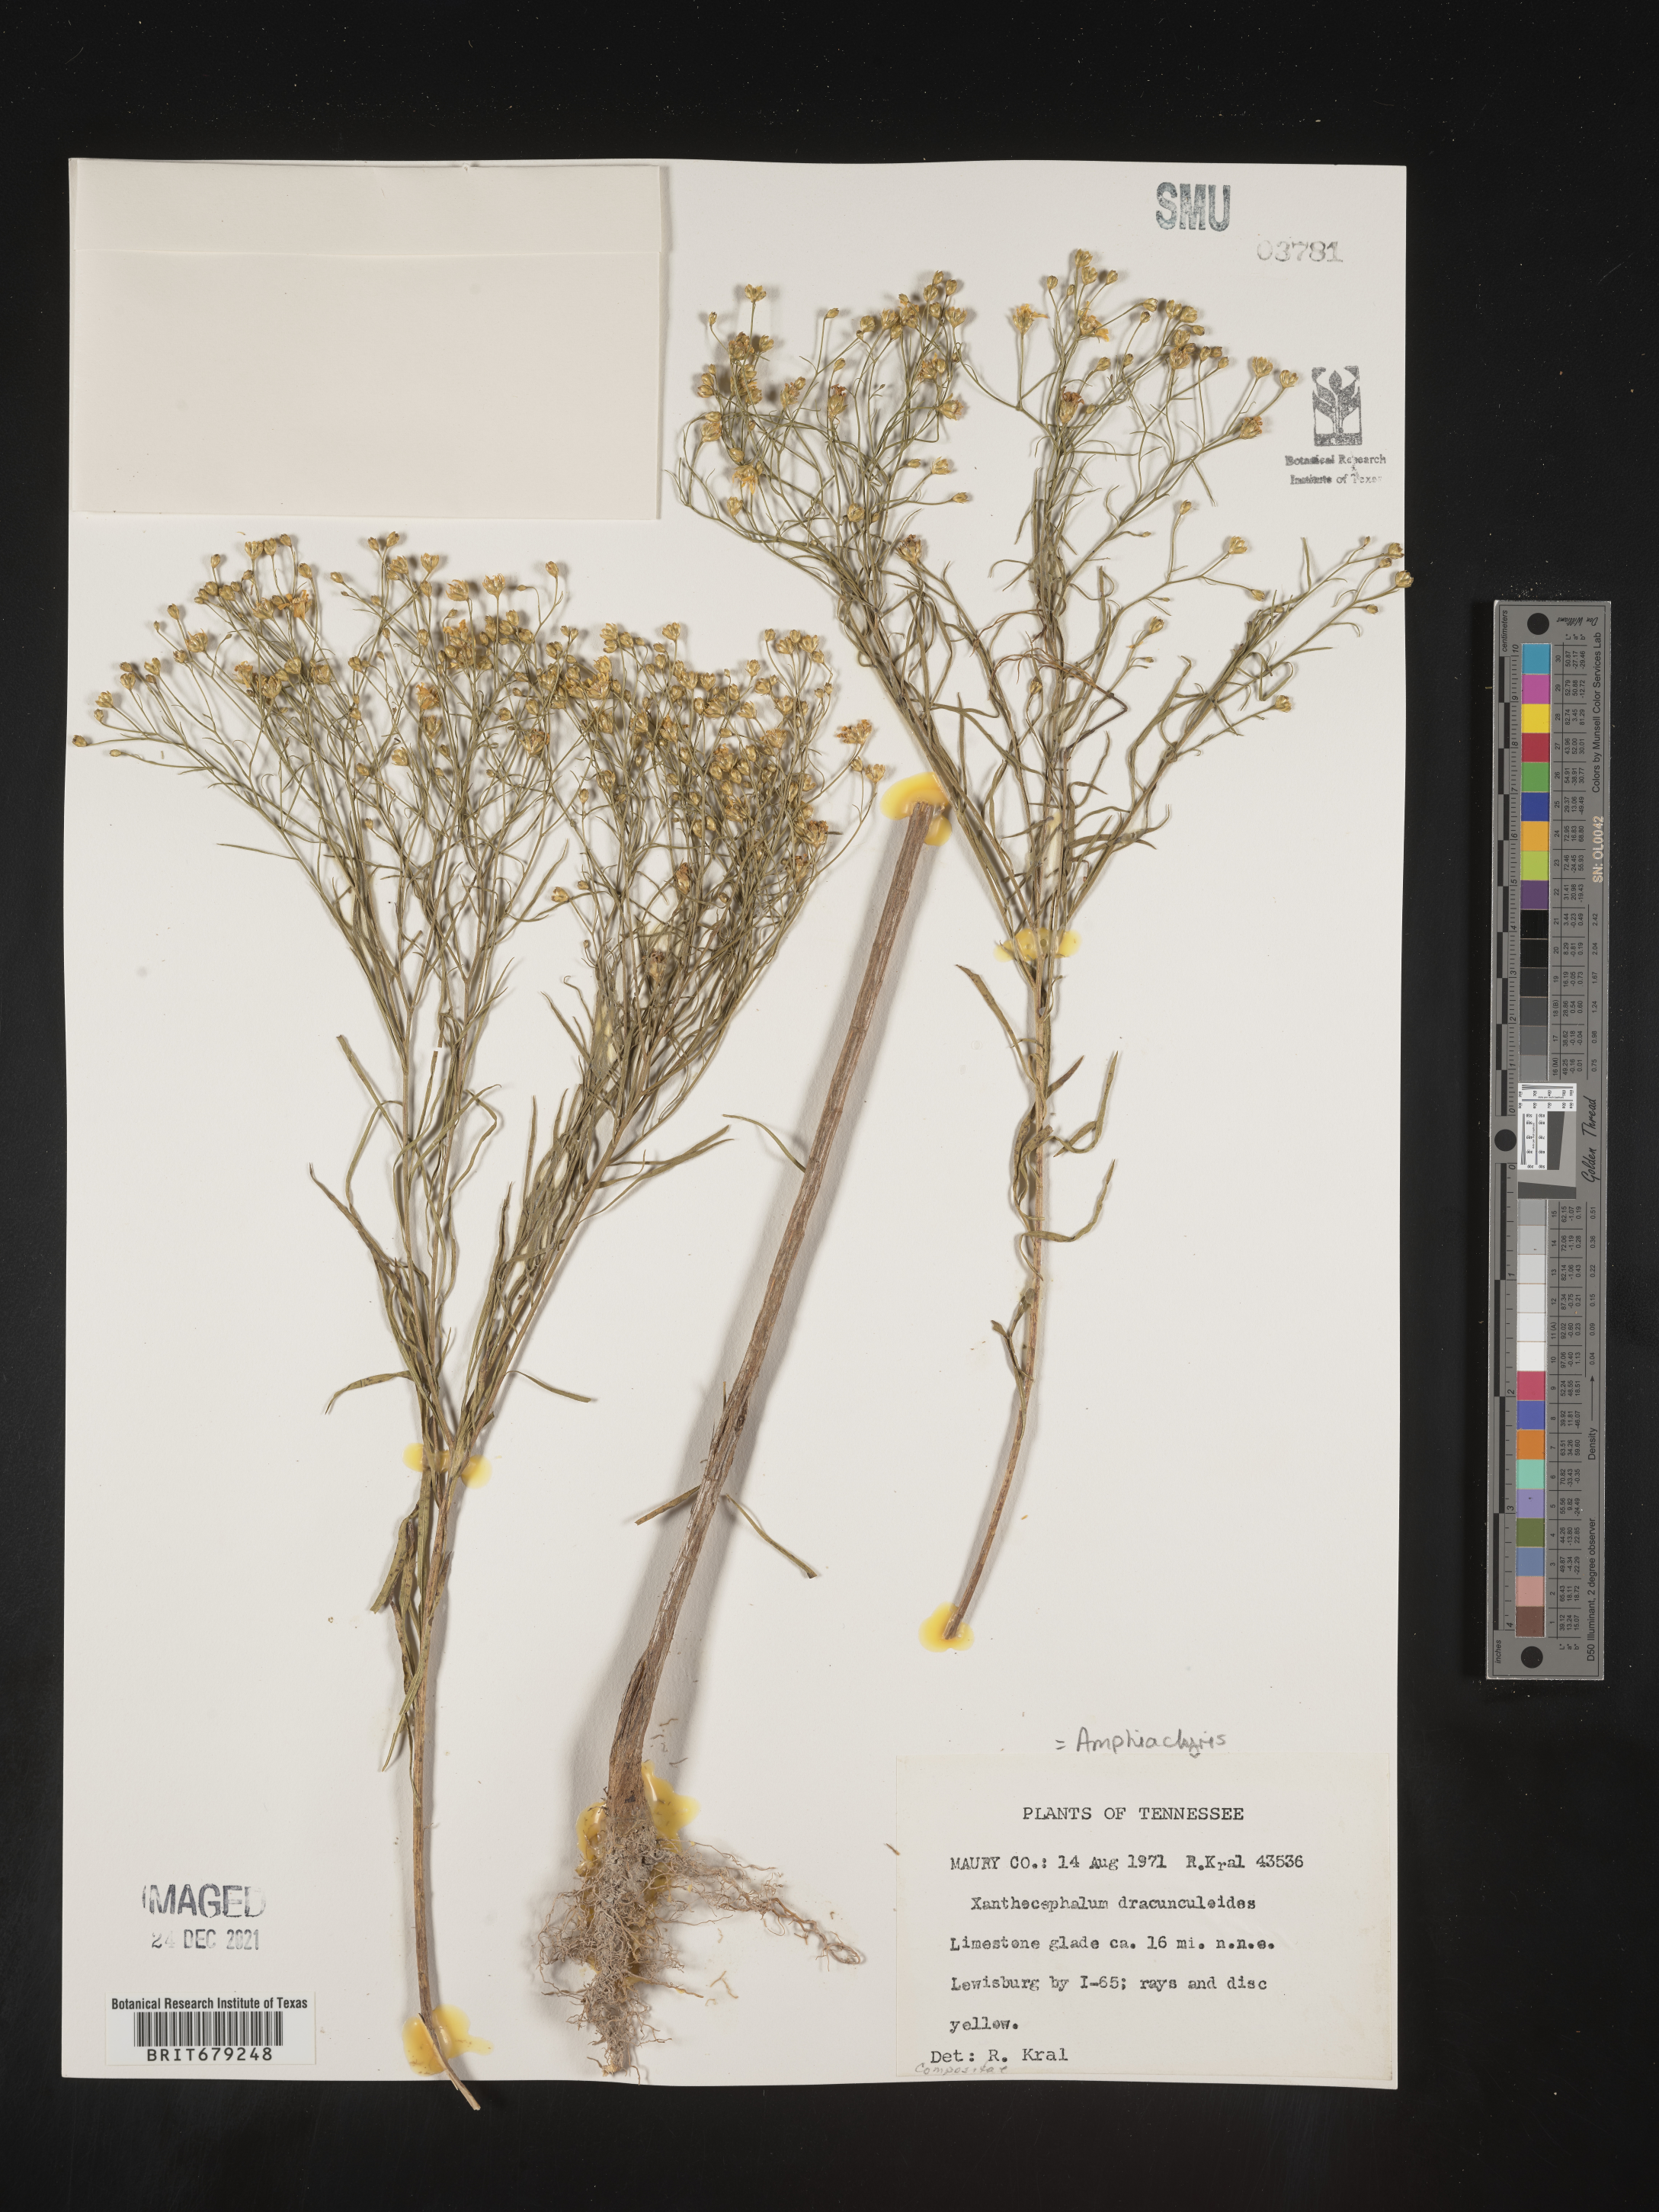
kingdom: Plantae
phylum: Tracheophyta
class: Magnoliopsida
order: Asterales
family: Asteraceae
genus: Amphiachyris
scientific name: Amphiachyris dracunculoides
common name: Broomweed
